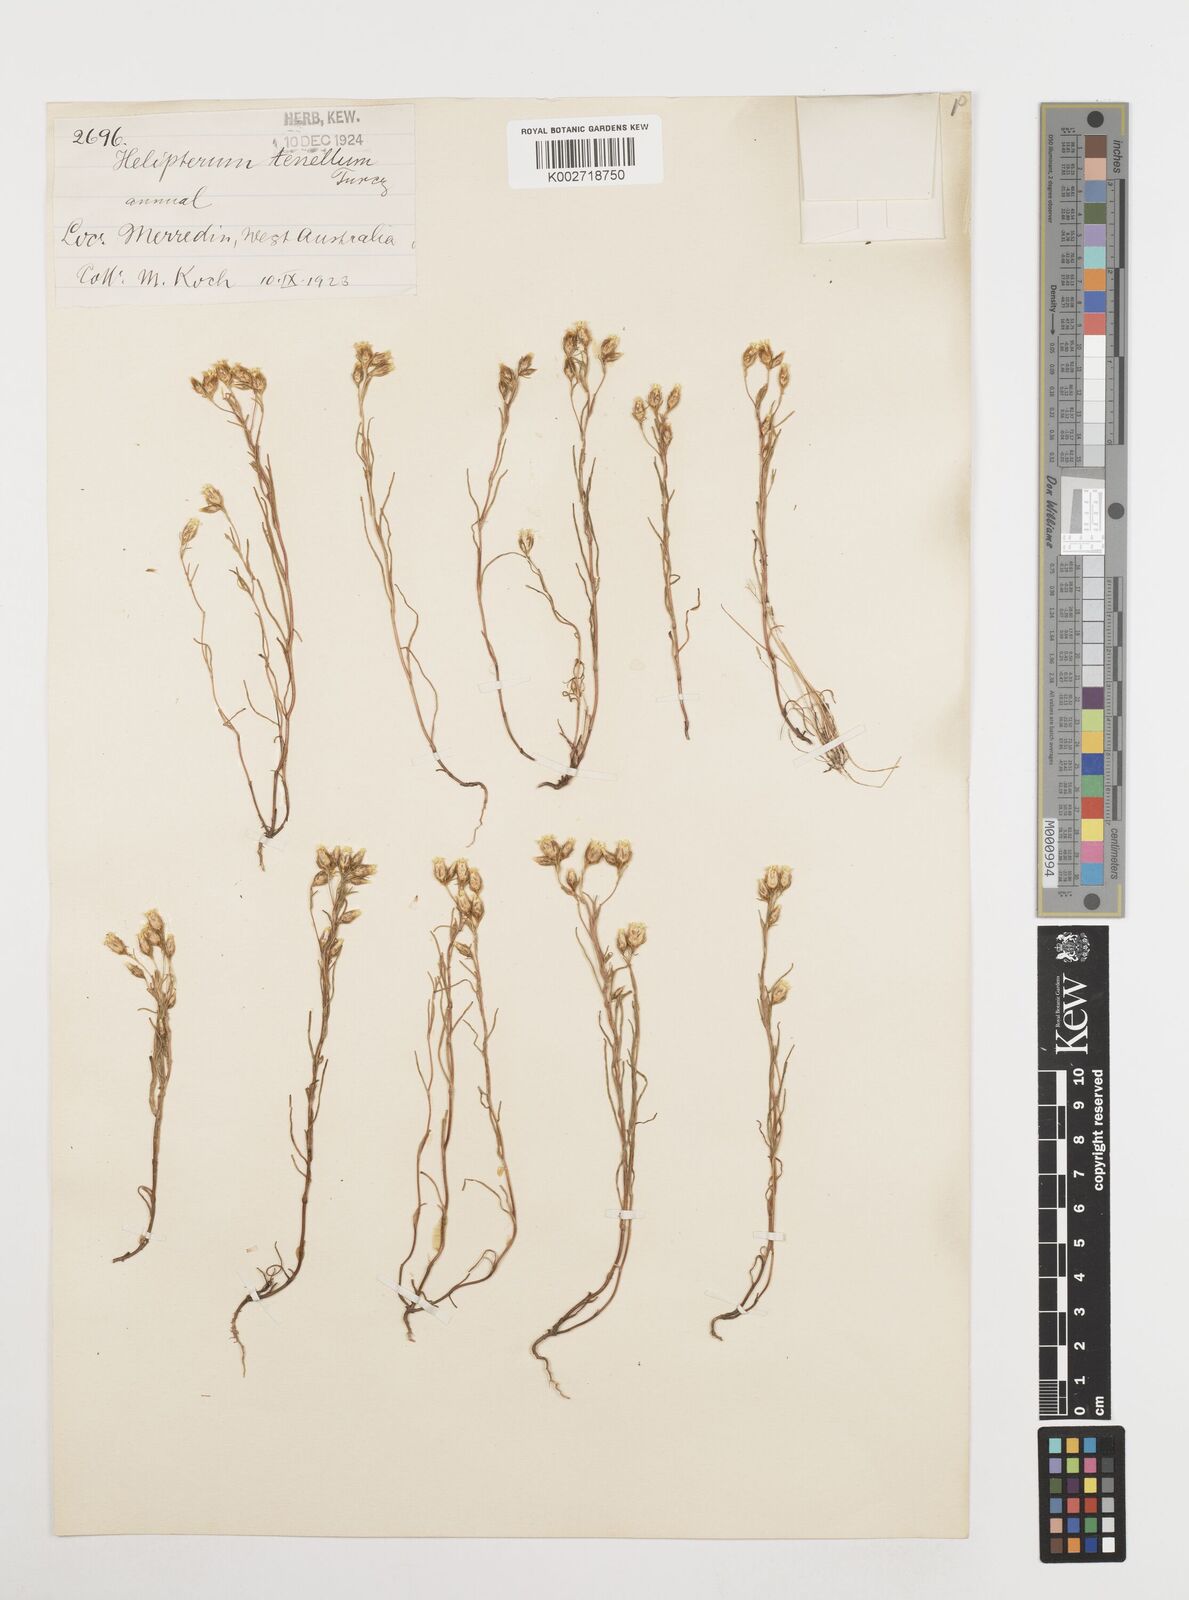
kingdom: Plantae
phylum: Tracheophyta
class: Magnoliopsida
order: Asterales
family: Asteraceae
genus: Erymophyllum
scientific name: Erymophyllum tenellum
